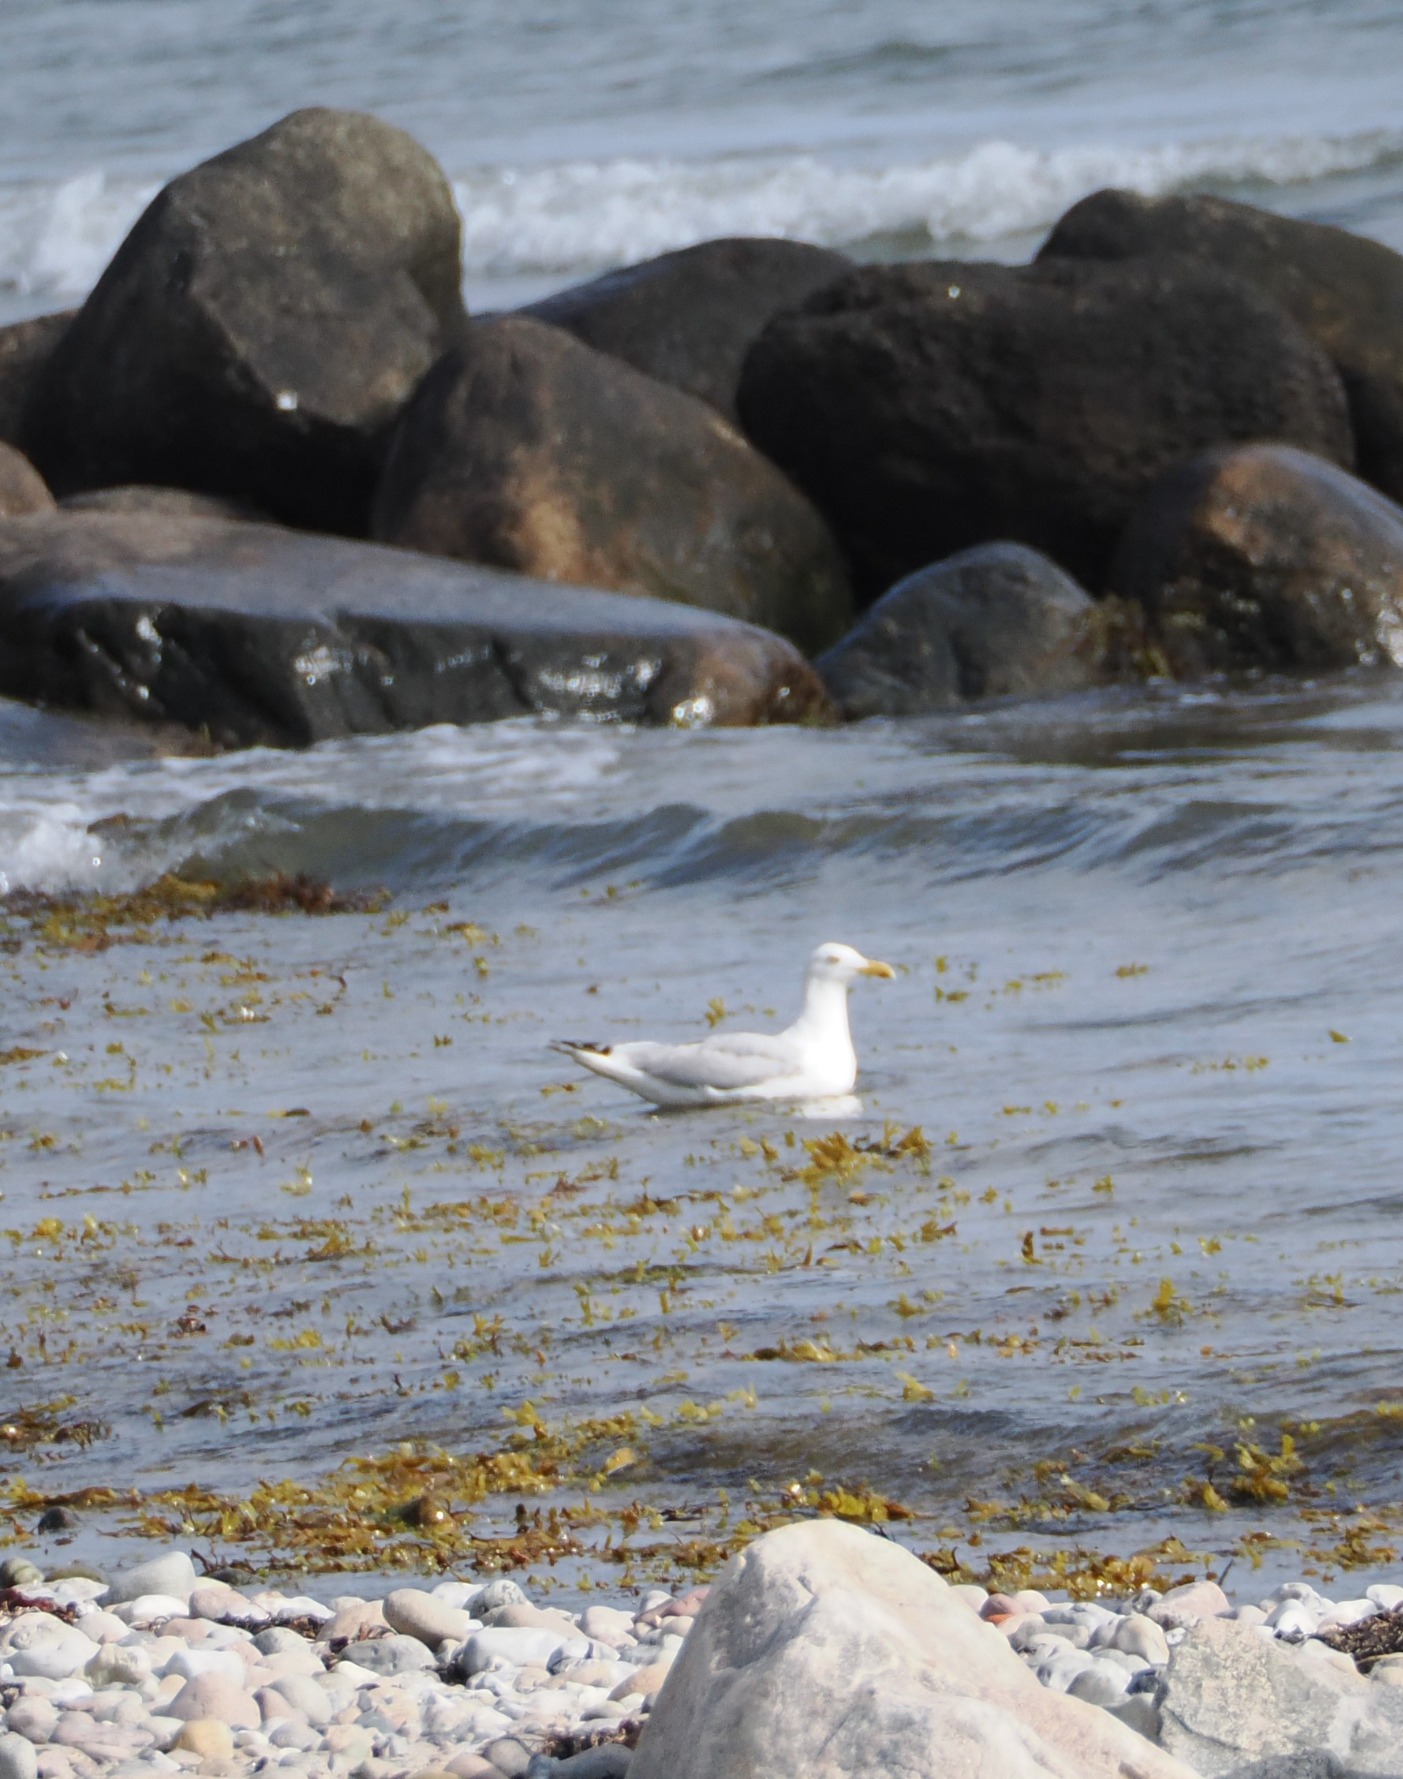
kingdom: Animalia
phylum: Chordata
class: Aves
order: Charadriiformes
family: Laridae
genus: Larus
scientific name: Larus argentatus
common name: Sølvmåge
